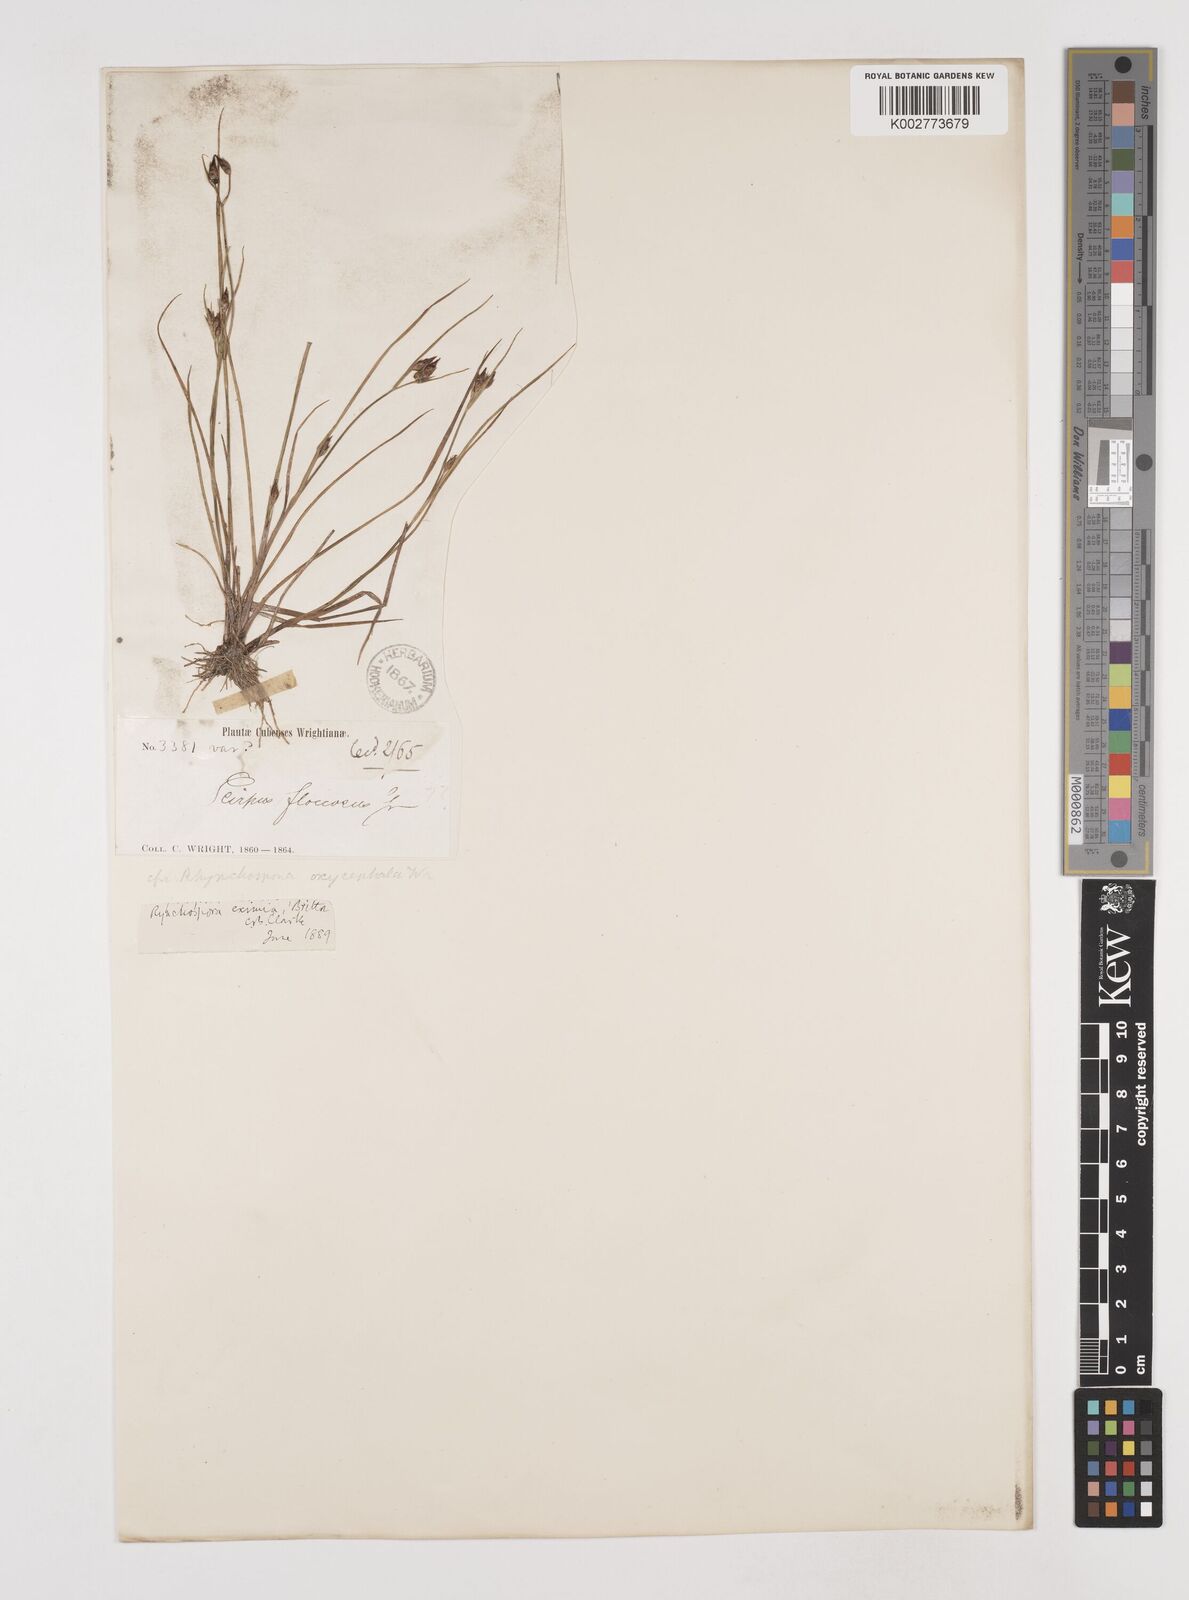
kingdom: Plantae
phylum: Tracheophyta
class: Liliopsida
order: Poales
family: Cyperaceae
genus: Rhynchospora
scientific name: Rhynchospora eximia
